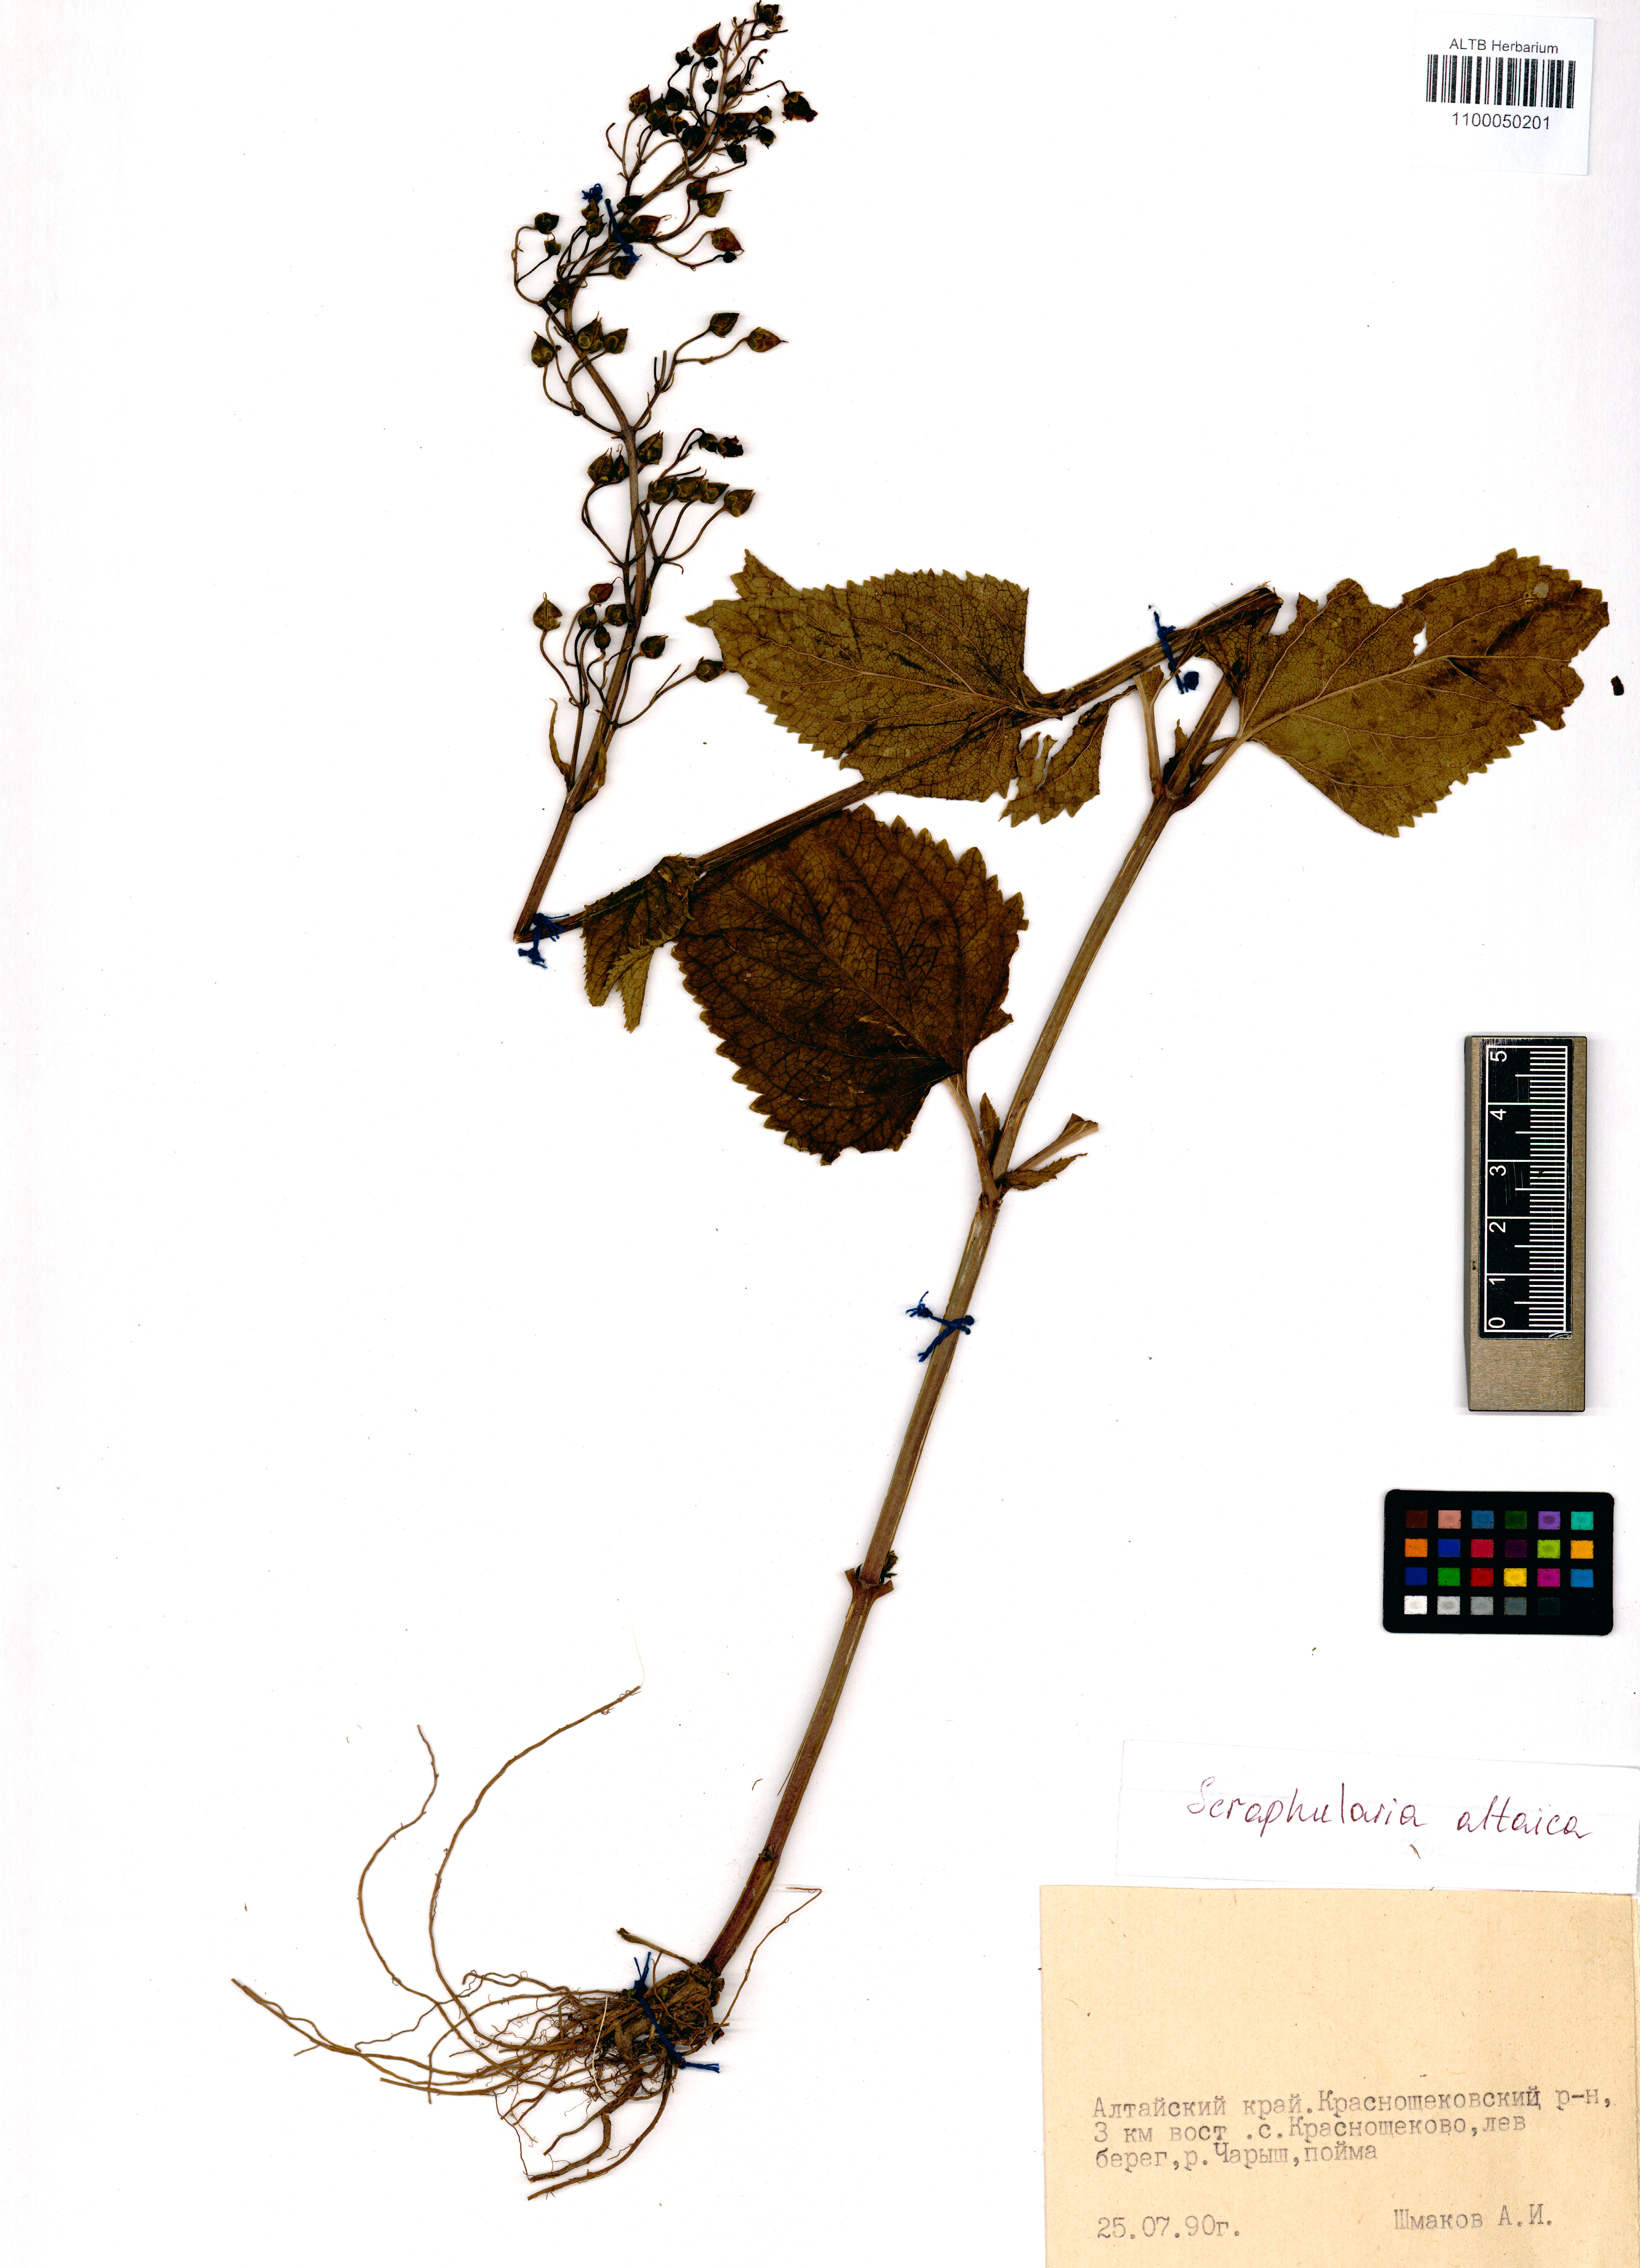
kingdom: Plantae
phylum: Tracheophyta
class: Magnoliopsida
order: Lamiales
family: Scrophulariaceae
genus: Scrophularia
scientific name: Scrophularia altaica
